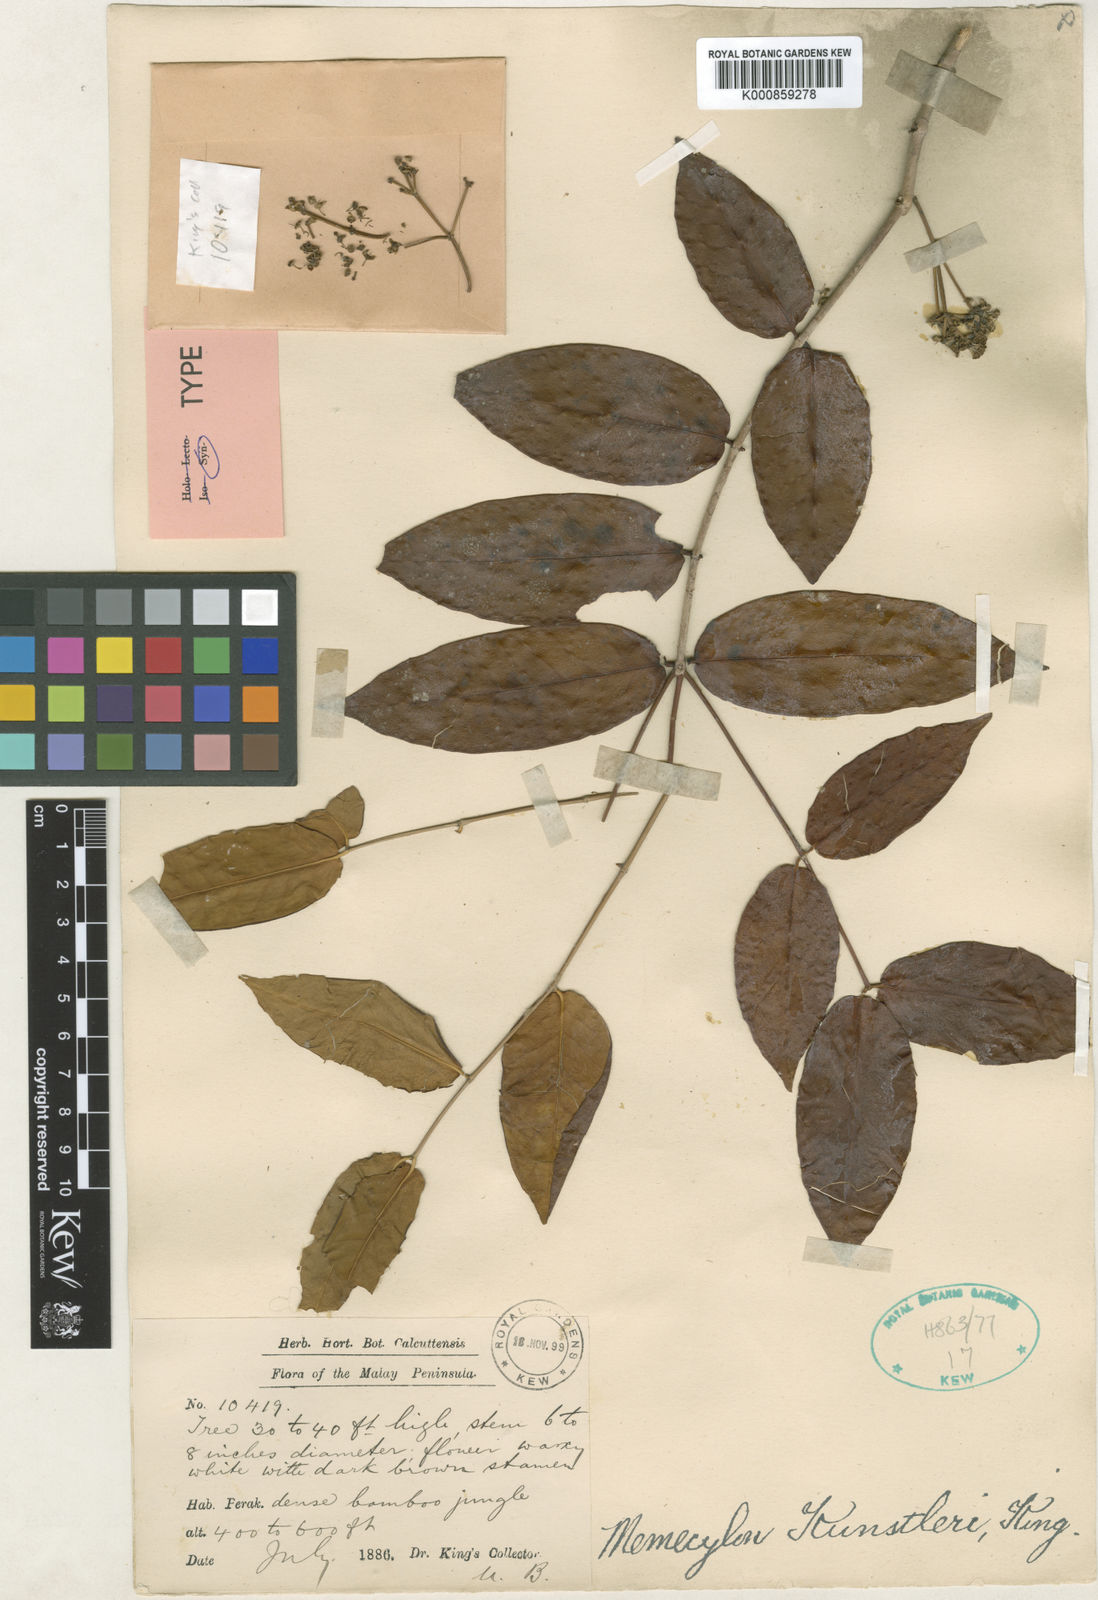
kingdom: Plantae
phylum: Tracheophyta
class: Magnoliopsida
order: Myrtales
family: Melastomataceae
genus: Memecylon
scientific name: Memecylon kunstleri
